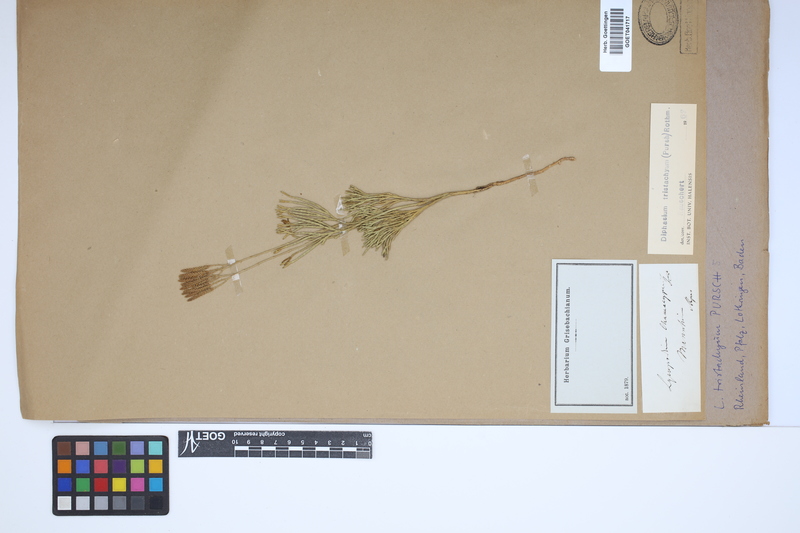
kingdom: Plantae
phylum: Tracheophyta
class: Lycopodiopsida
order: Lycopodiales
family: Lycopodiaceae
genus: Diphasiastrum
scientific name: Diphasiastrum tristachyum
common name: Blue ground-cedar
